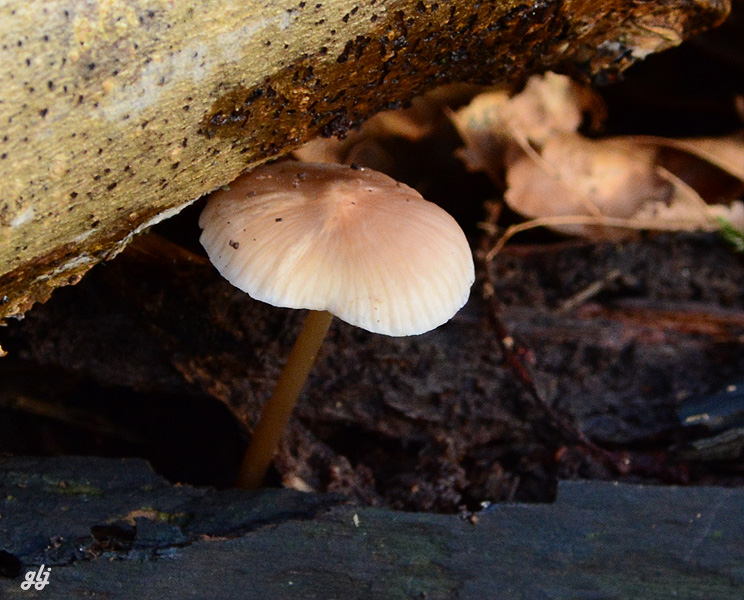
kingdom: Fungi
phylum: Basidiomycota
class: Agaricomycetes
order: Agaricales
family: Mycenaceae
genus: Mycena
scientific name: Mycena galericulata
